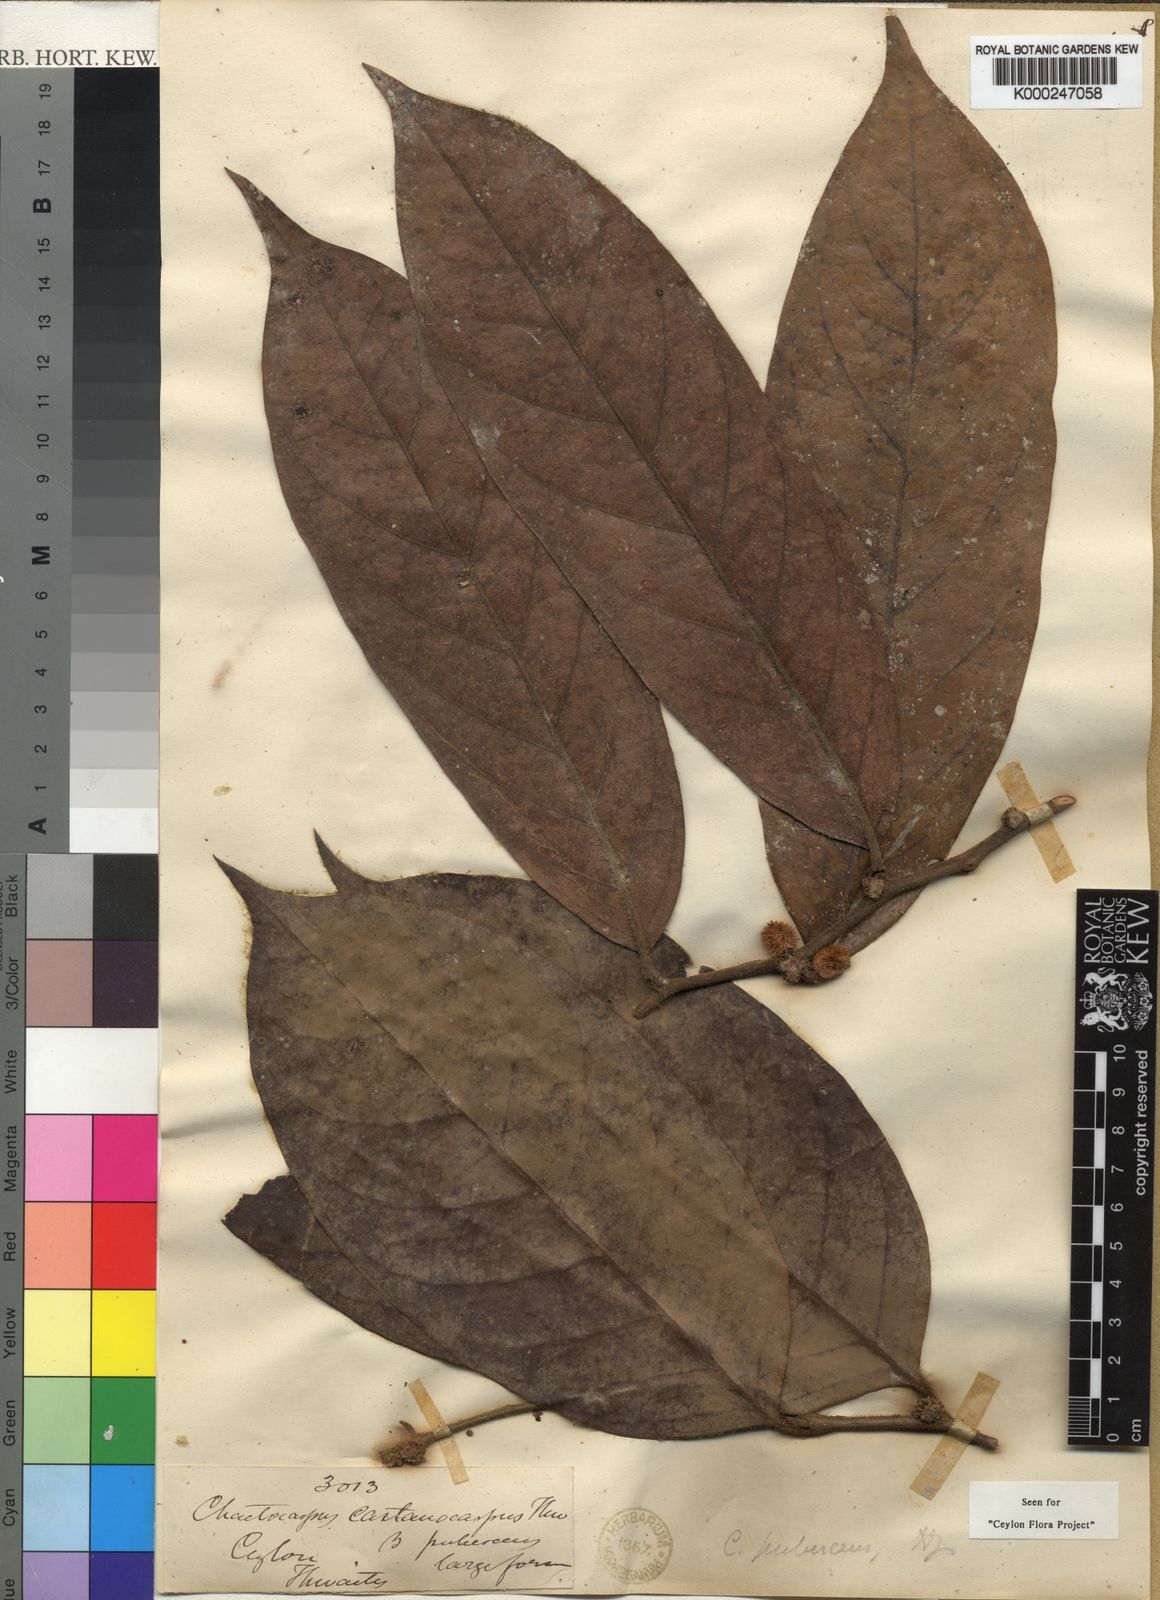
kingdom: Plantae
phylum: Tracheophyta
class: Magnoliopsida
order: Malpighiales
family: Peraceae
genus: Chaetocarpus
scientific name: Chaetocarpus pubescens
